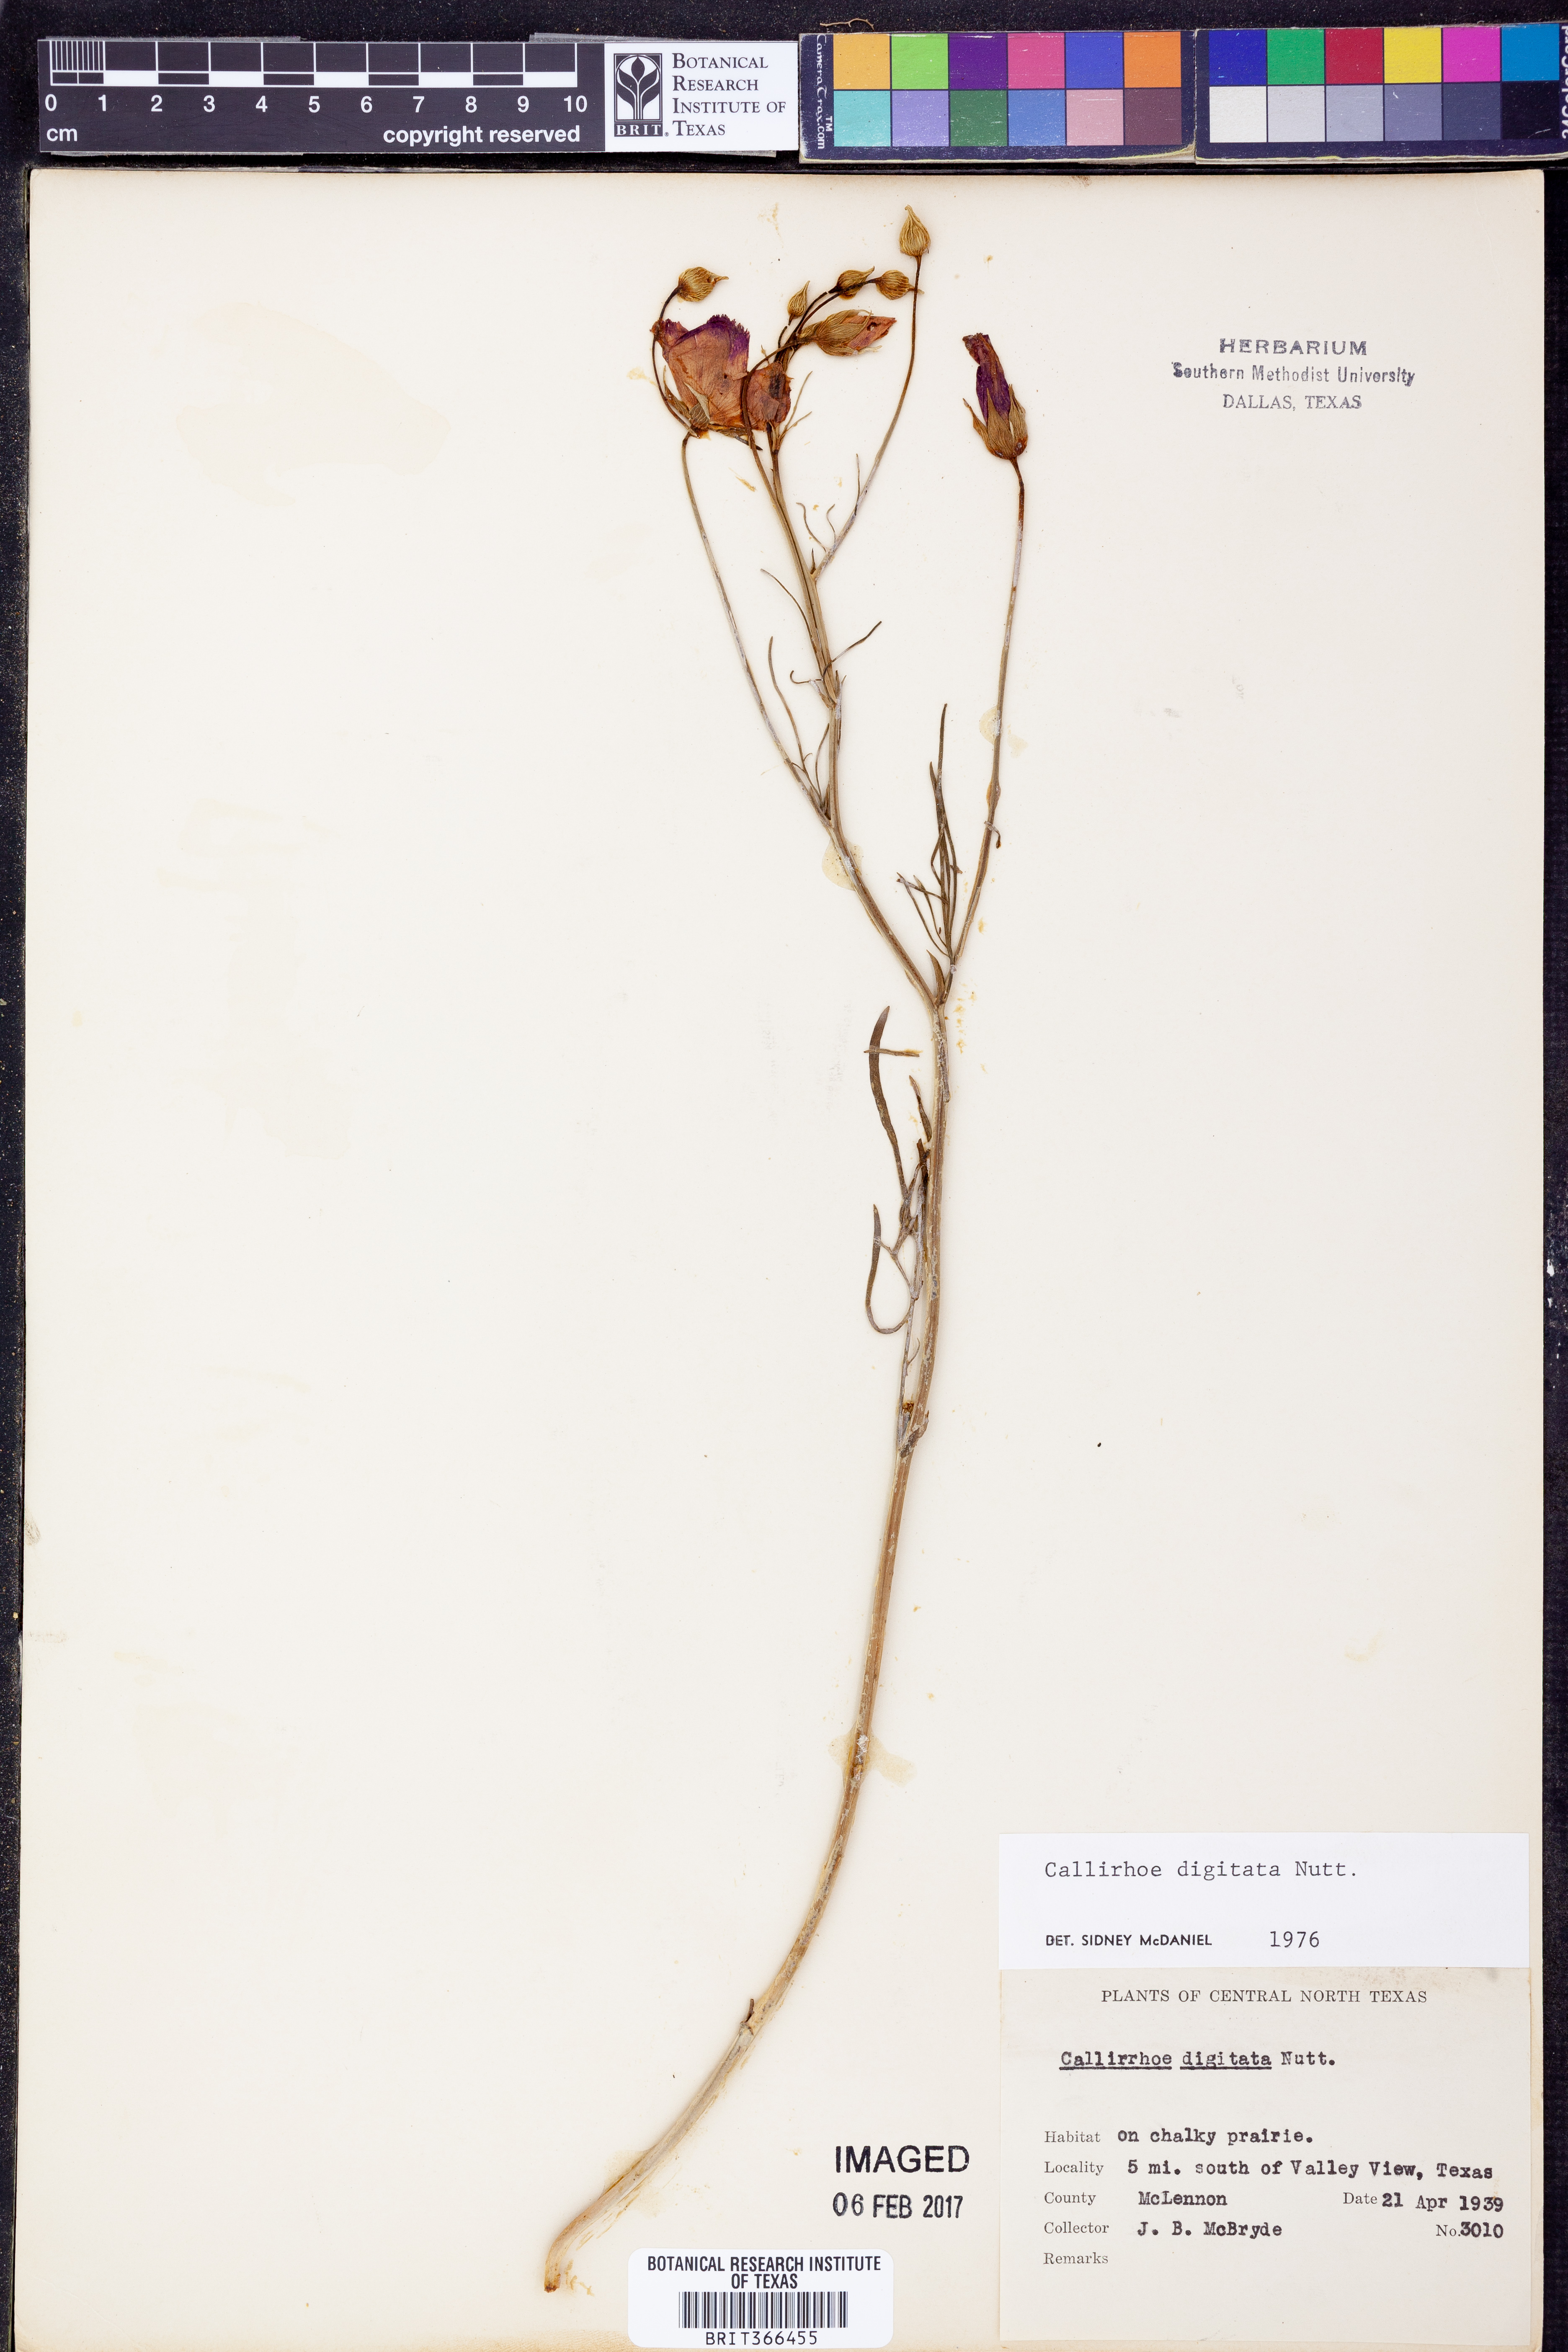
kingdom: Plantae
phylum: Tracheophyta
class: Magnoliopsida
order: Malvales
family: Malvaceae
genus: Callirhoe
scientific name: Callirhoe digitata
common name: Finger poppy-mallow
